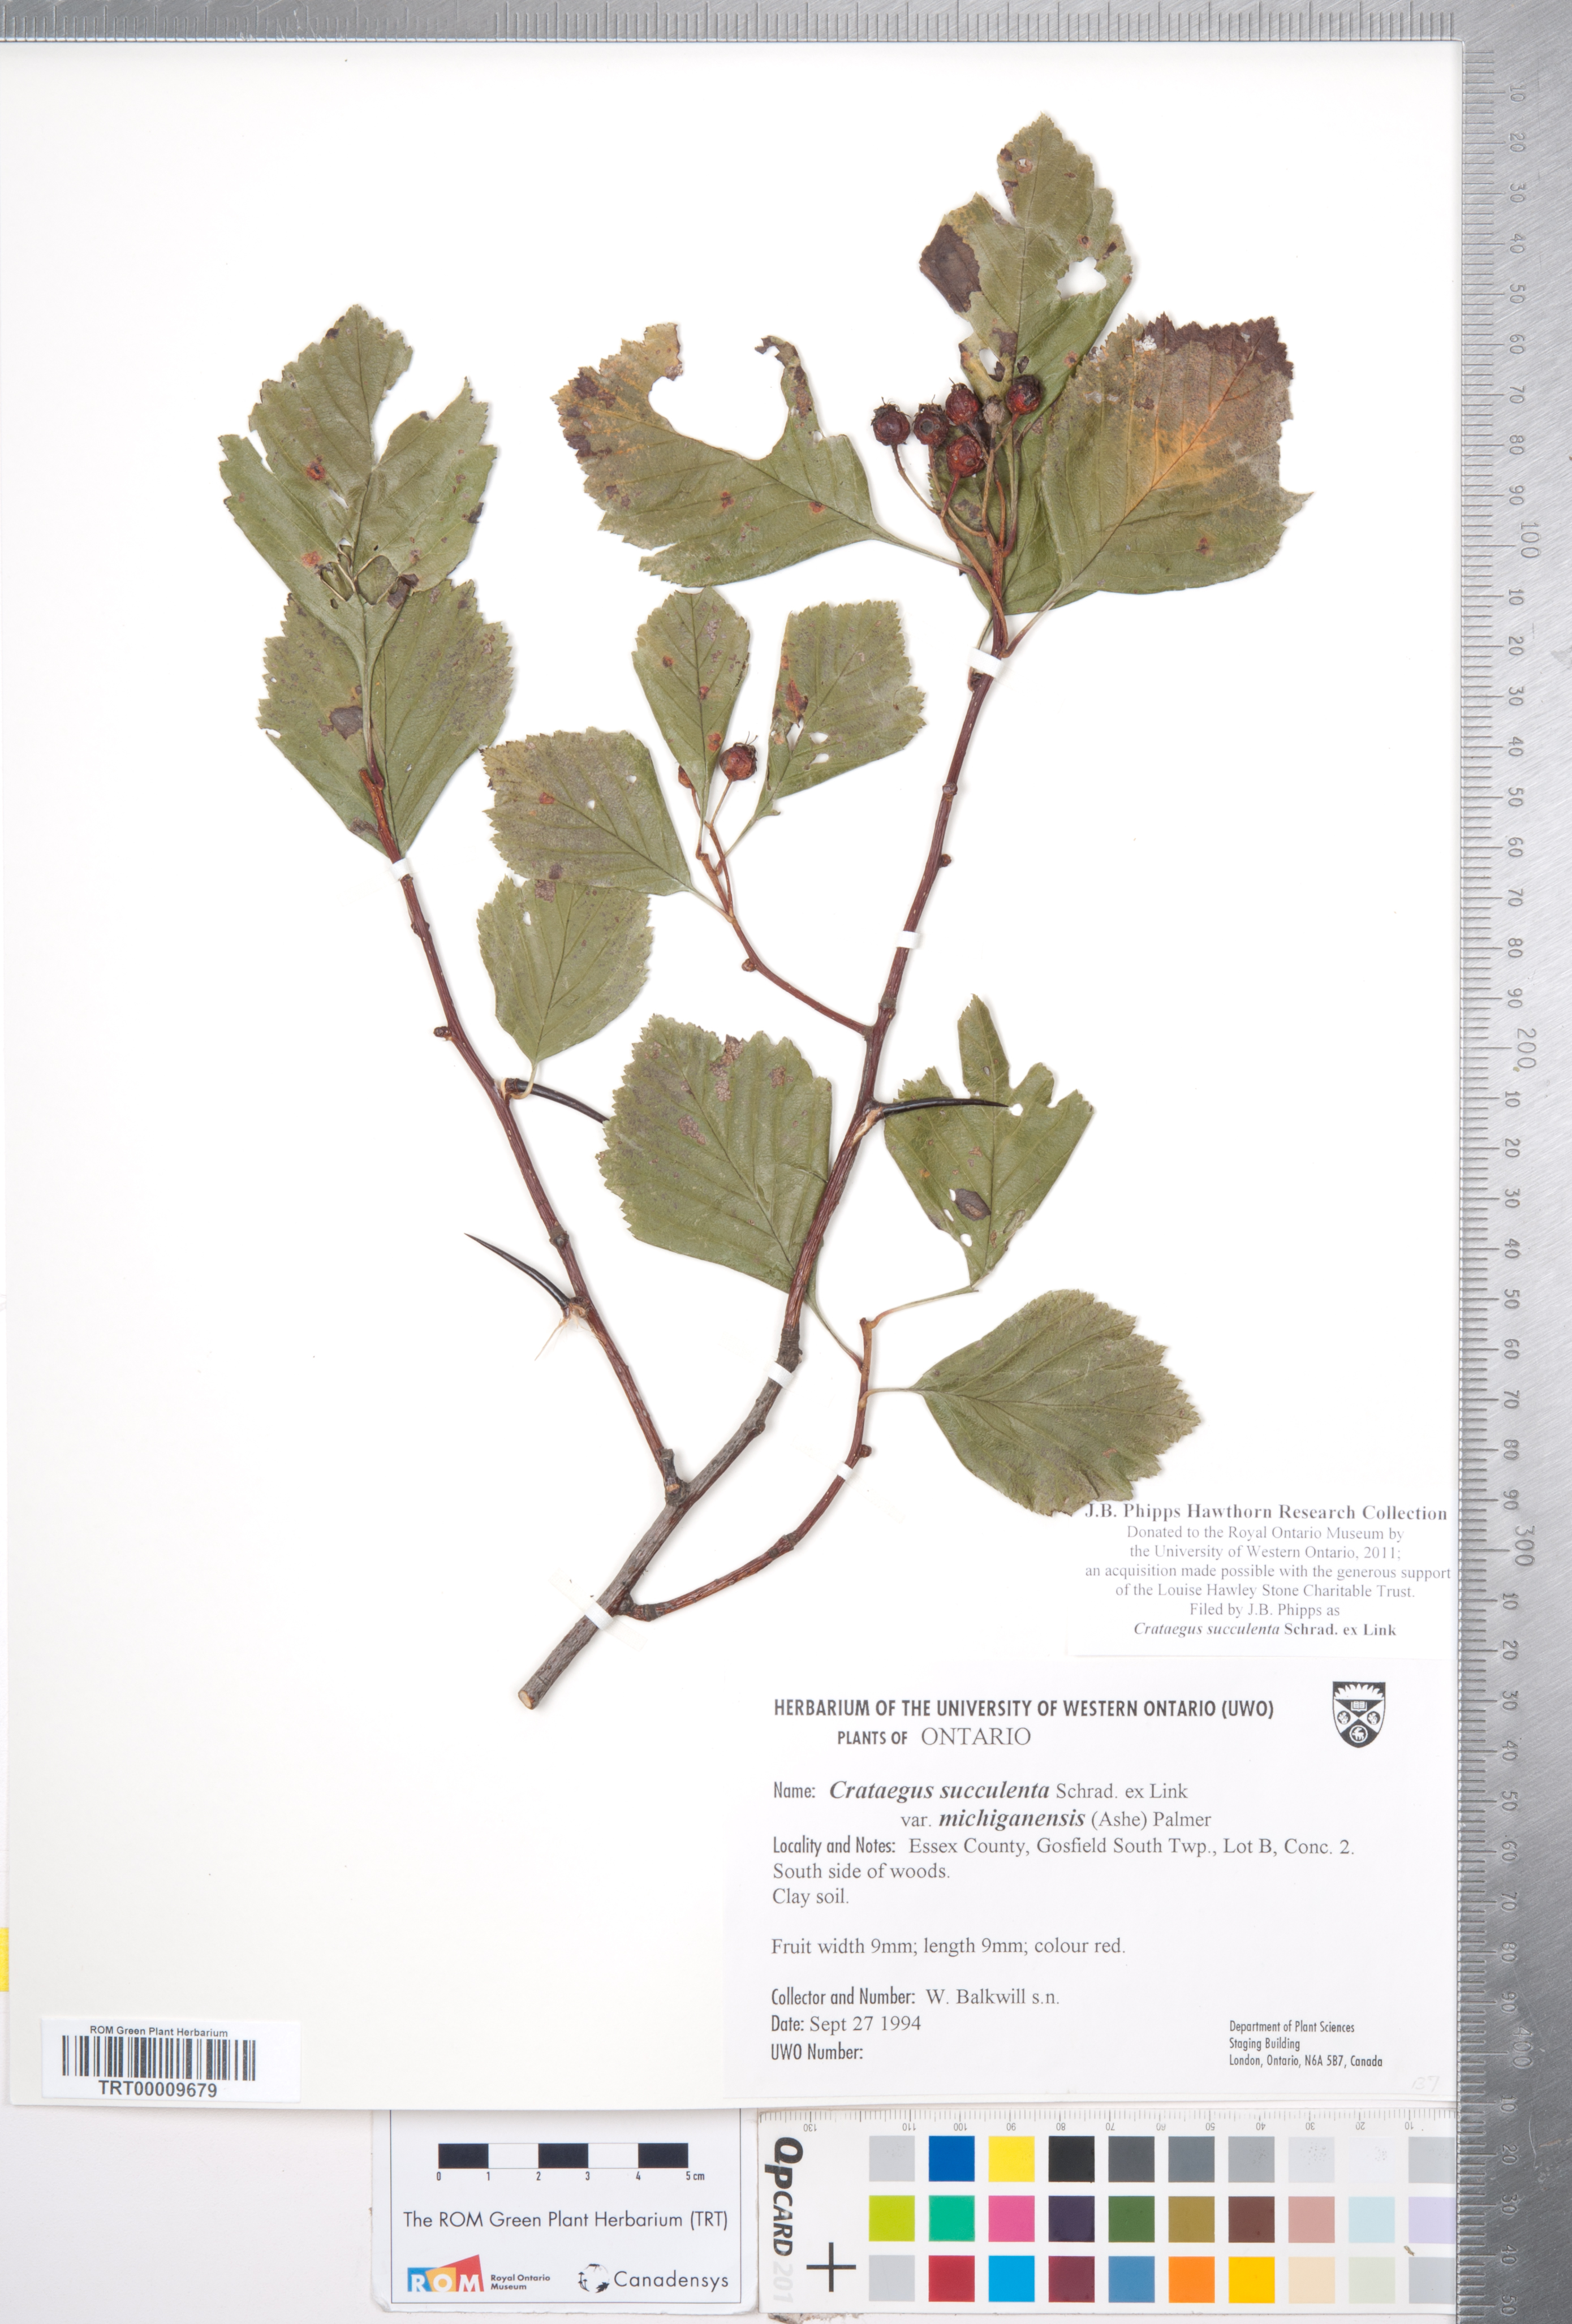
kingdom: Plantae
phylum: Tracheophyta
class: Magnoliopsida
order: Rosales
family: Rosaceae
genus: Crataegus
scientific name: Crataegus succulenta
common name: Fleshy hawthorn
